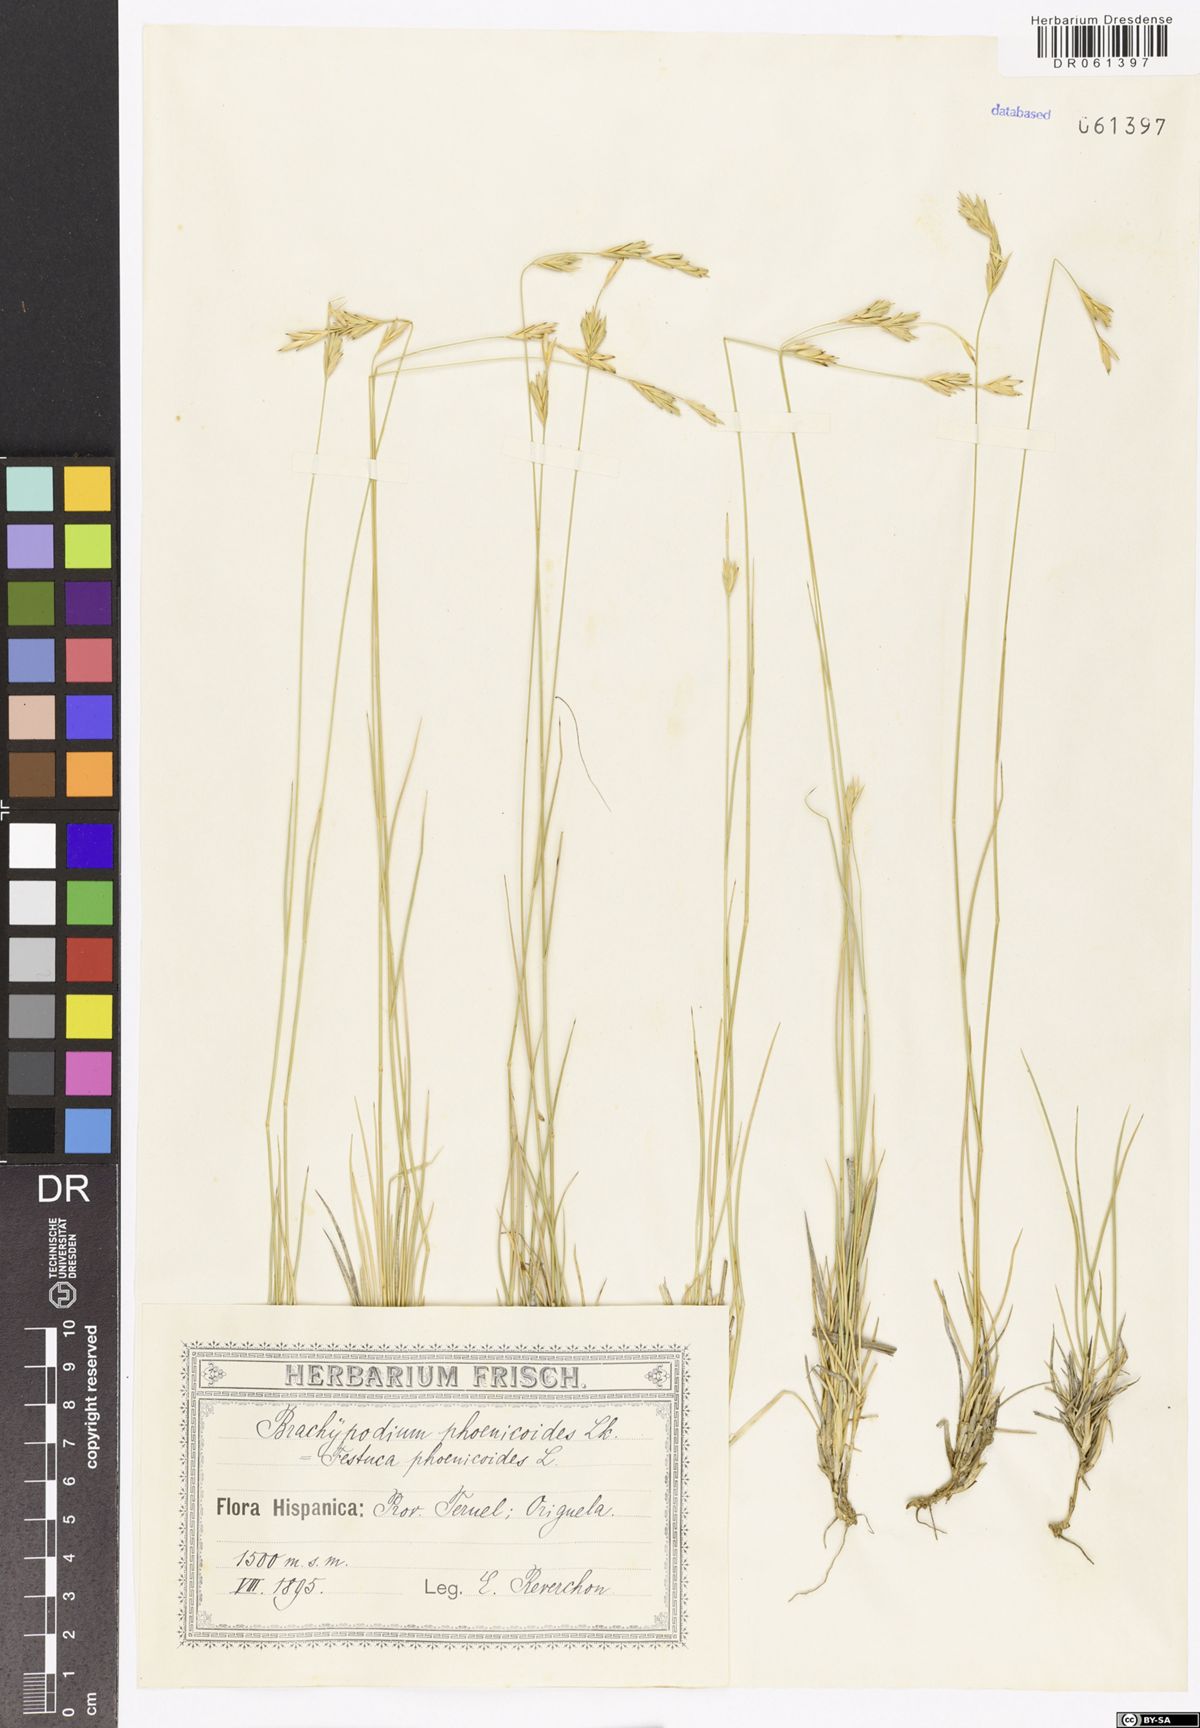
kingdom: Plantae
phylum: Tracheophyta
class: Liliopsida
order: Poales
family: Poaceae
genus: Brachypodium
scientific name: Brachypodium phoenicoides
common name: Thinleaf false brome
